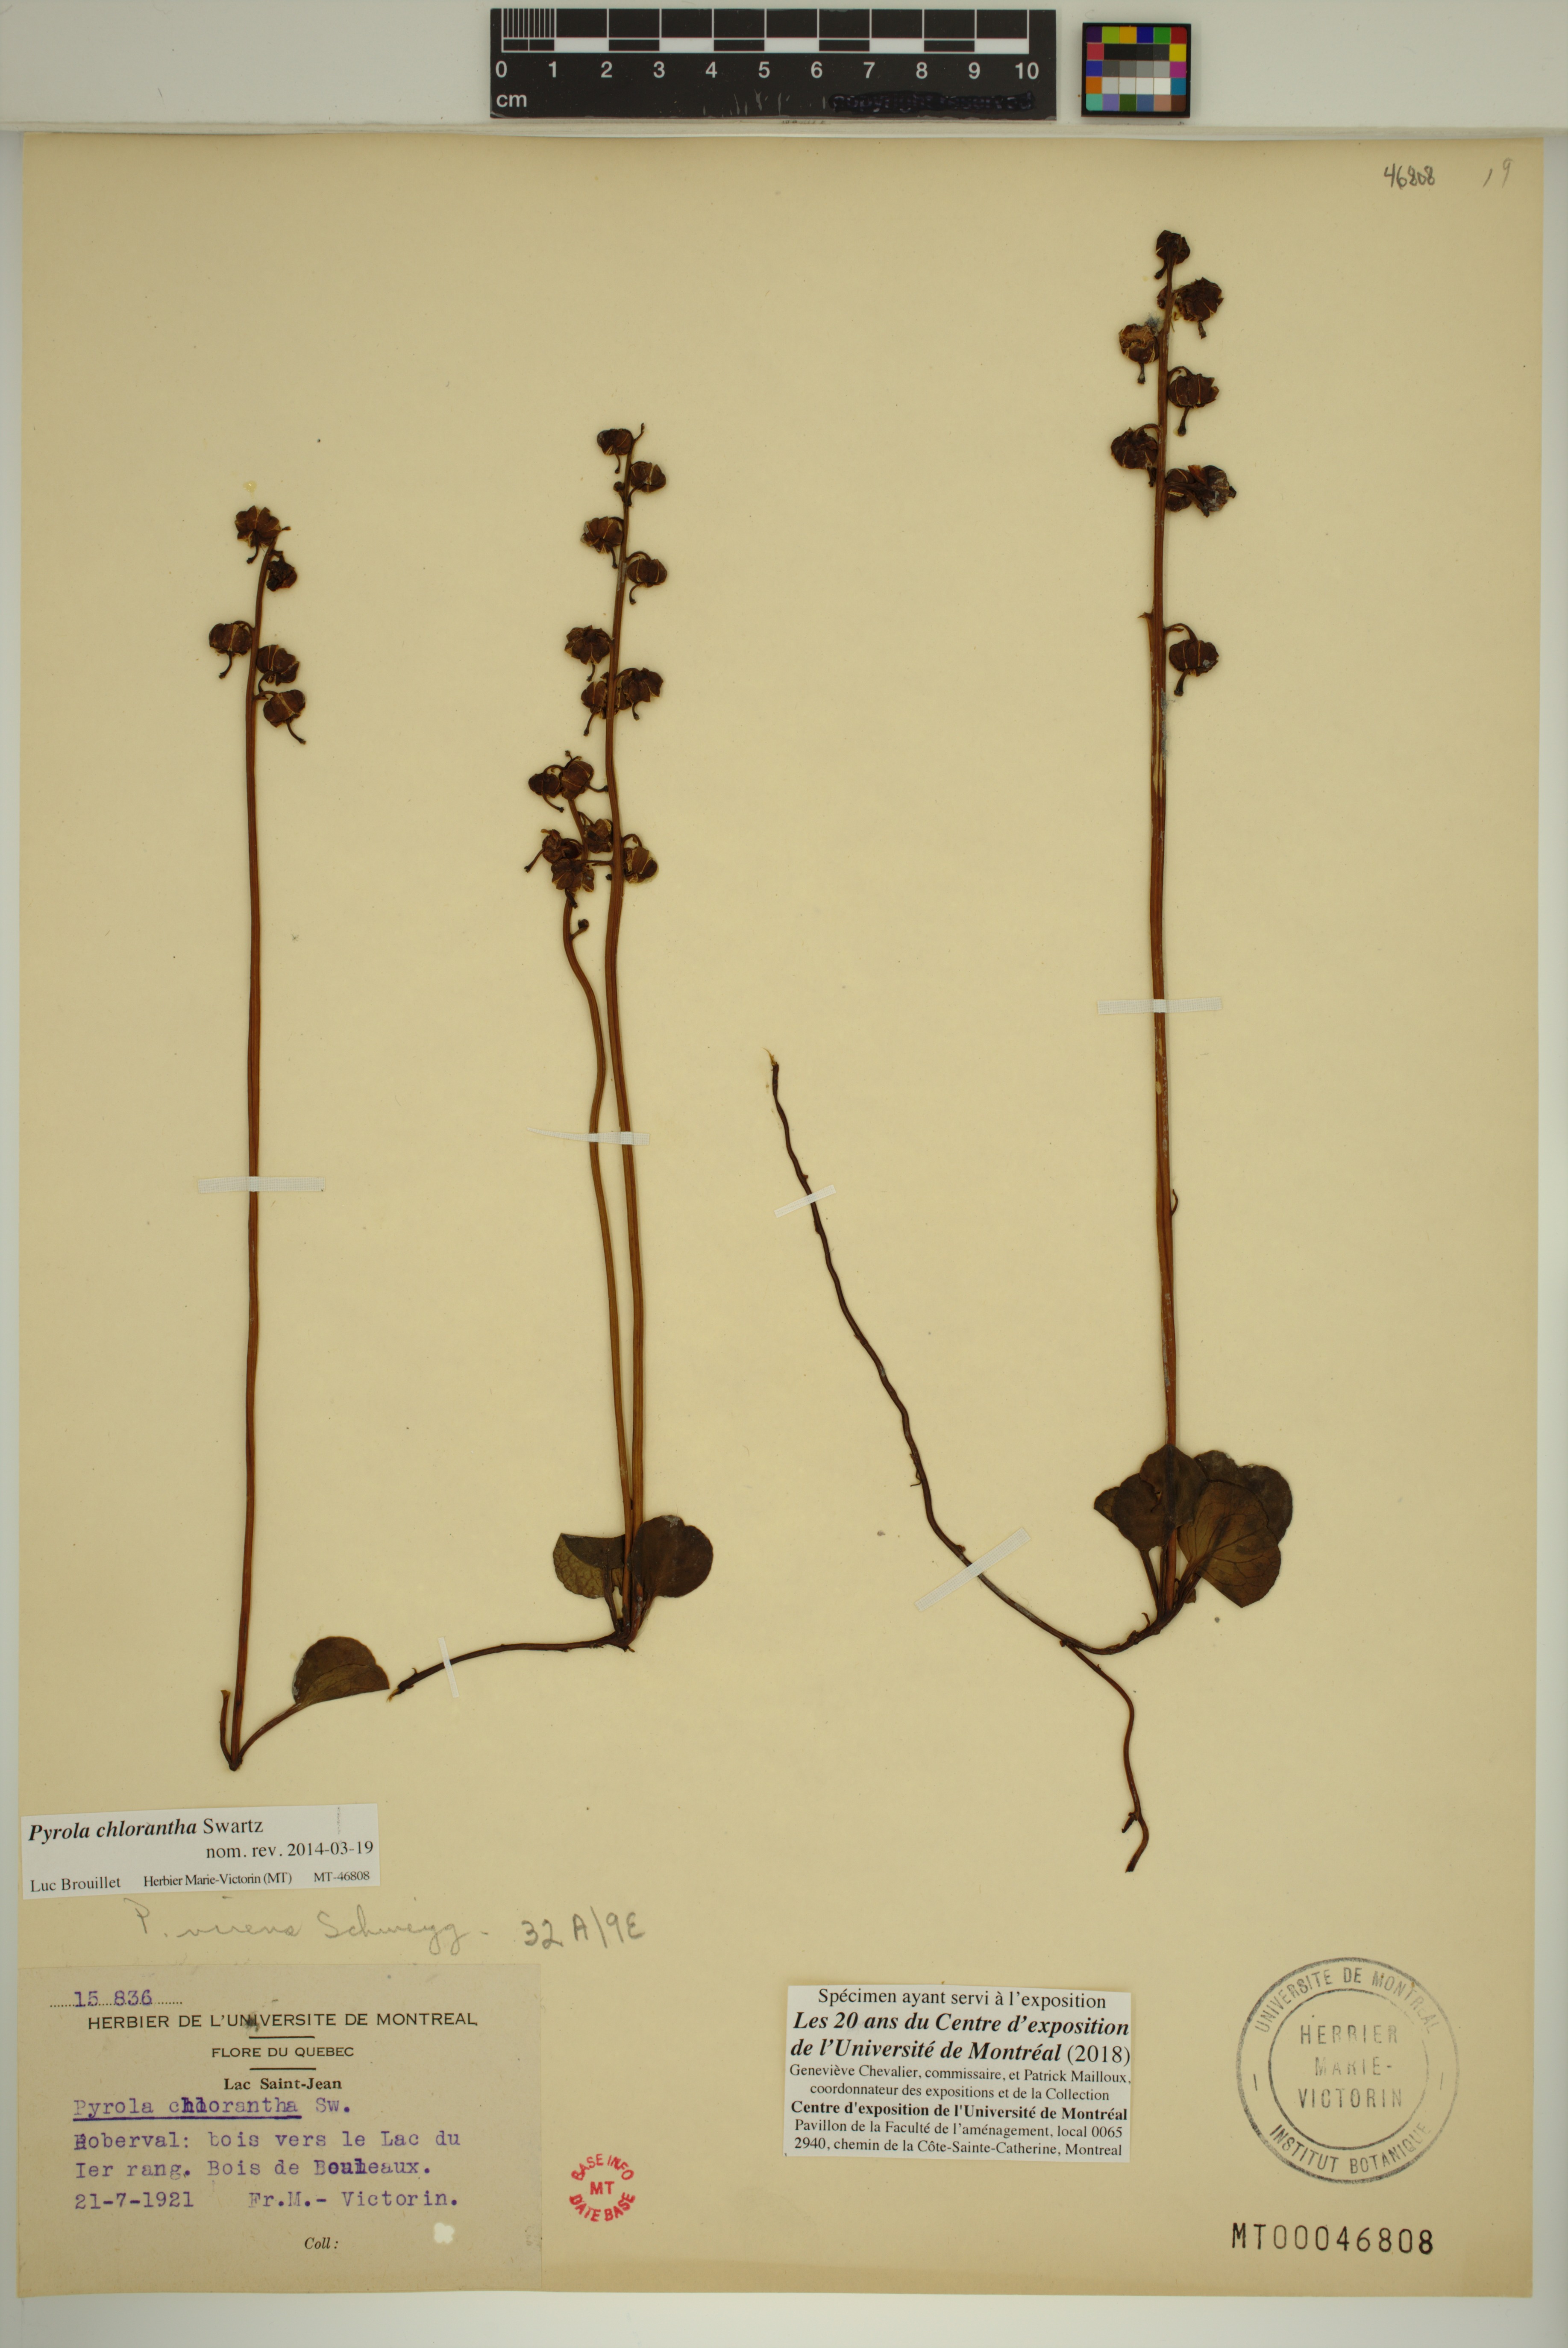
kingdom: Plantae
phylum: Tracheophyta
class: Magnoliopsida
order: Ericales
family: Ericaceae
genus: Pyrola
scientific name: Pyrola chlorantha
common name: Green wintergreen
